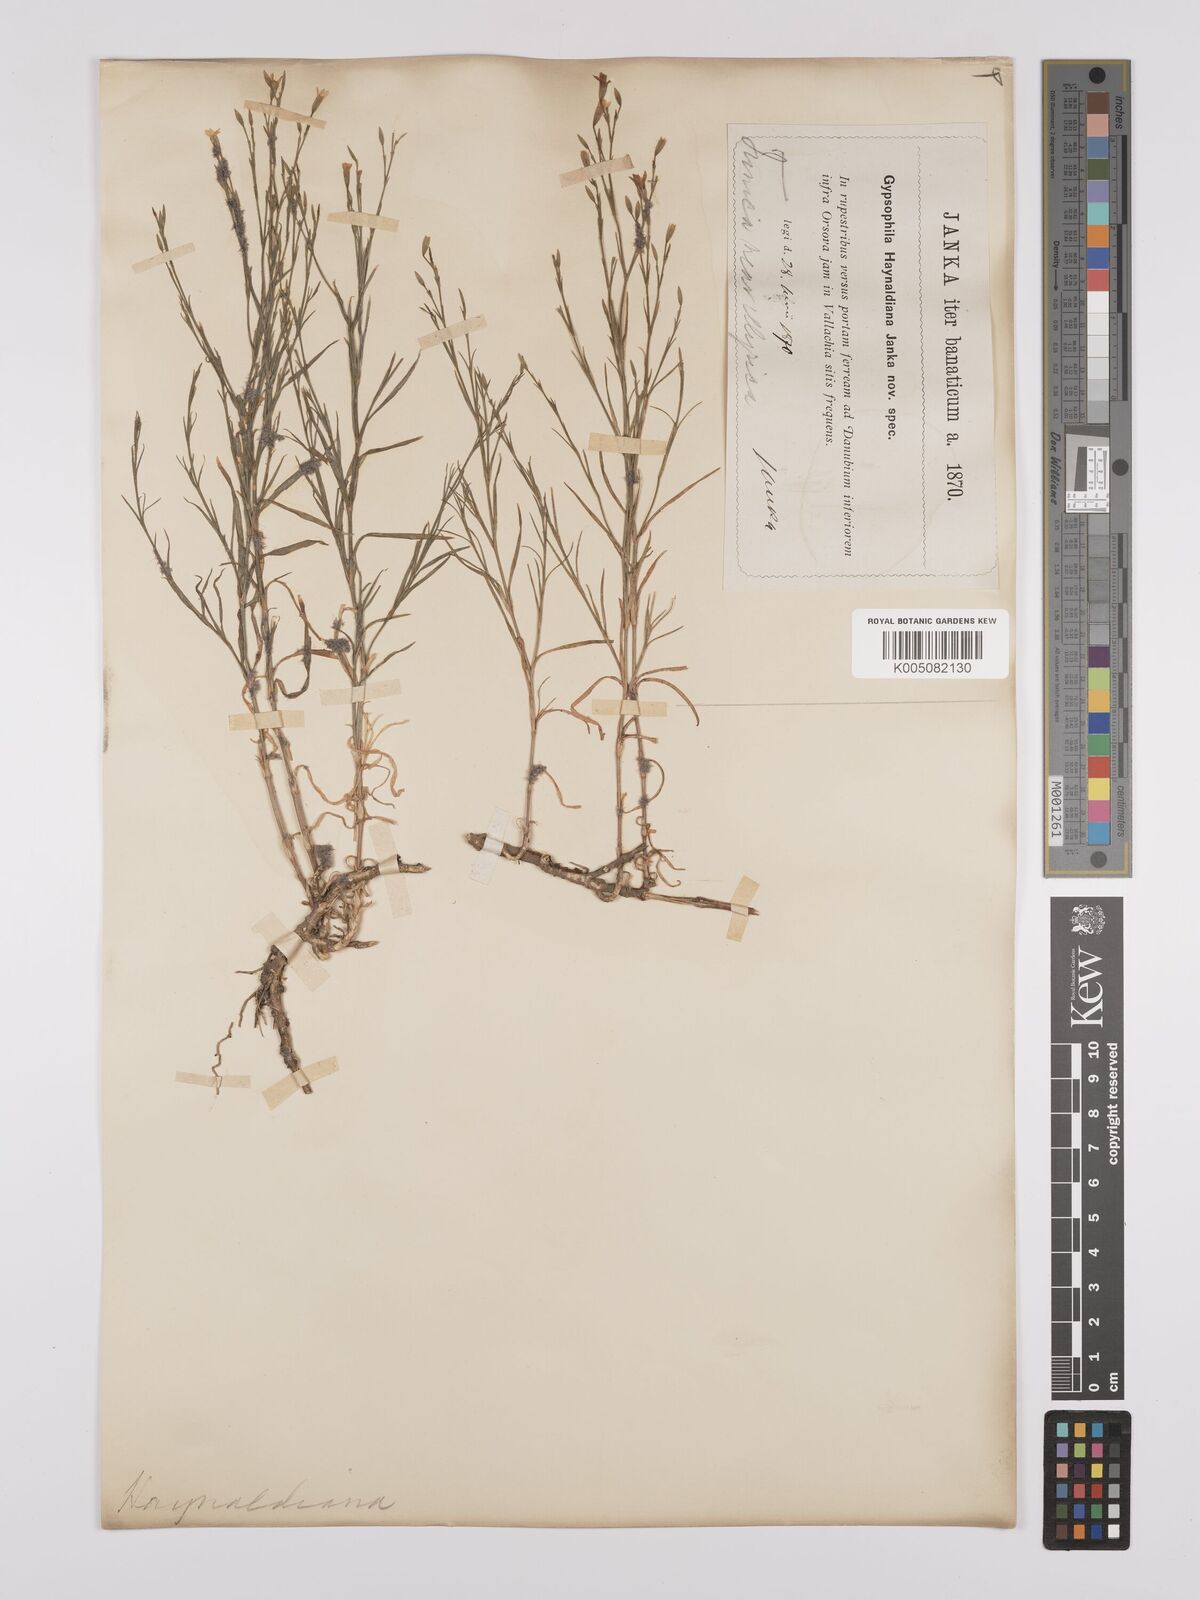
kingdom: Plantae
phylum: Tracheophyta
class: Magnoliopsida
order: Caryophyllales
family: Caryophyllaceae
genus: Dianthus
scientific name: Dianthus illyricus
